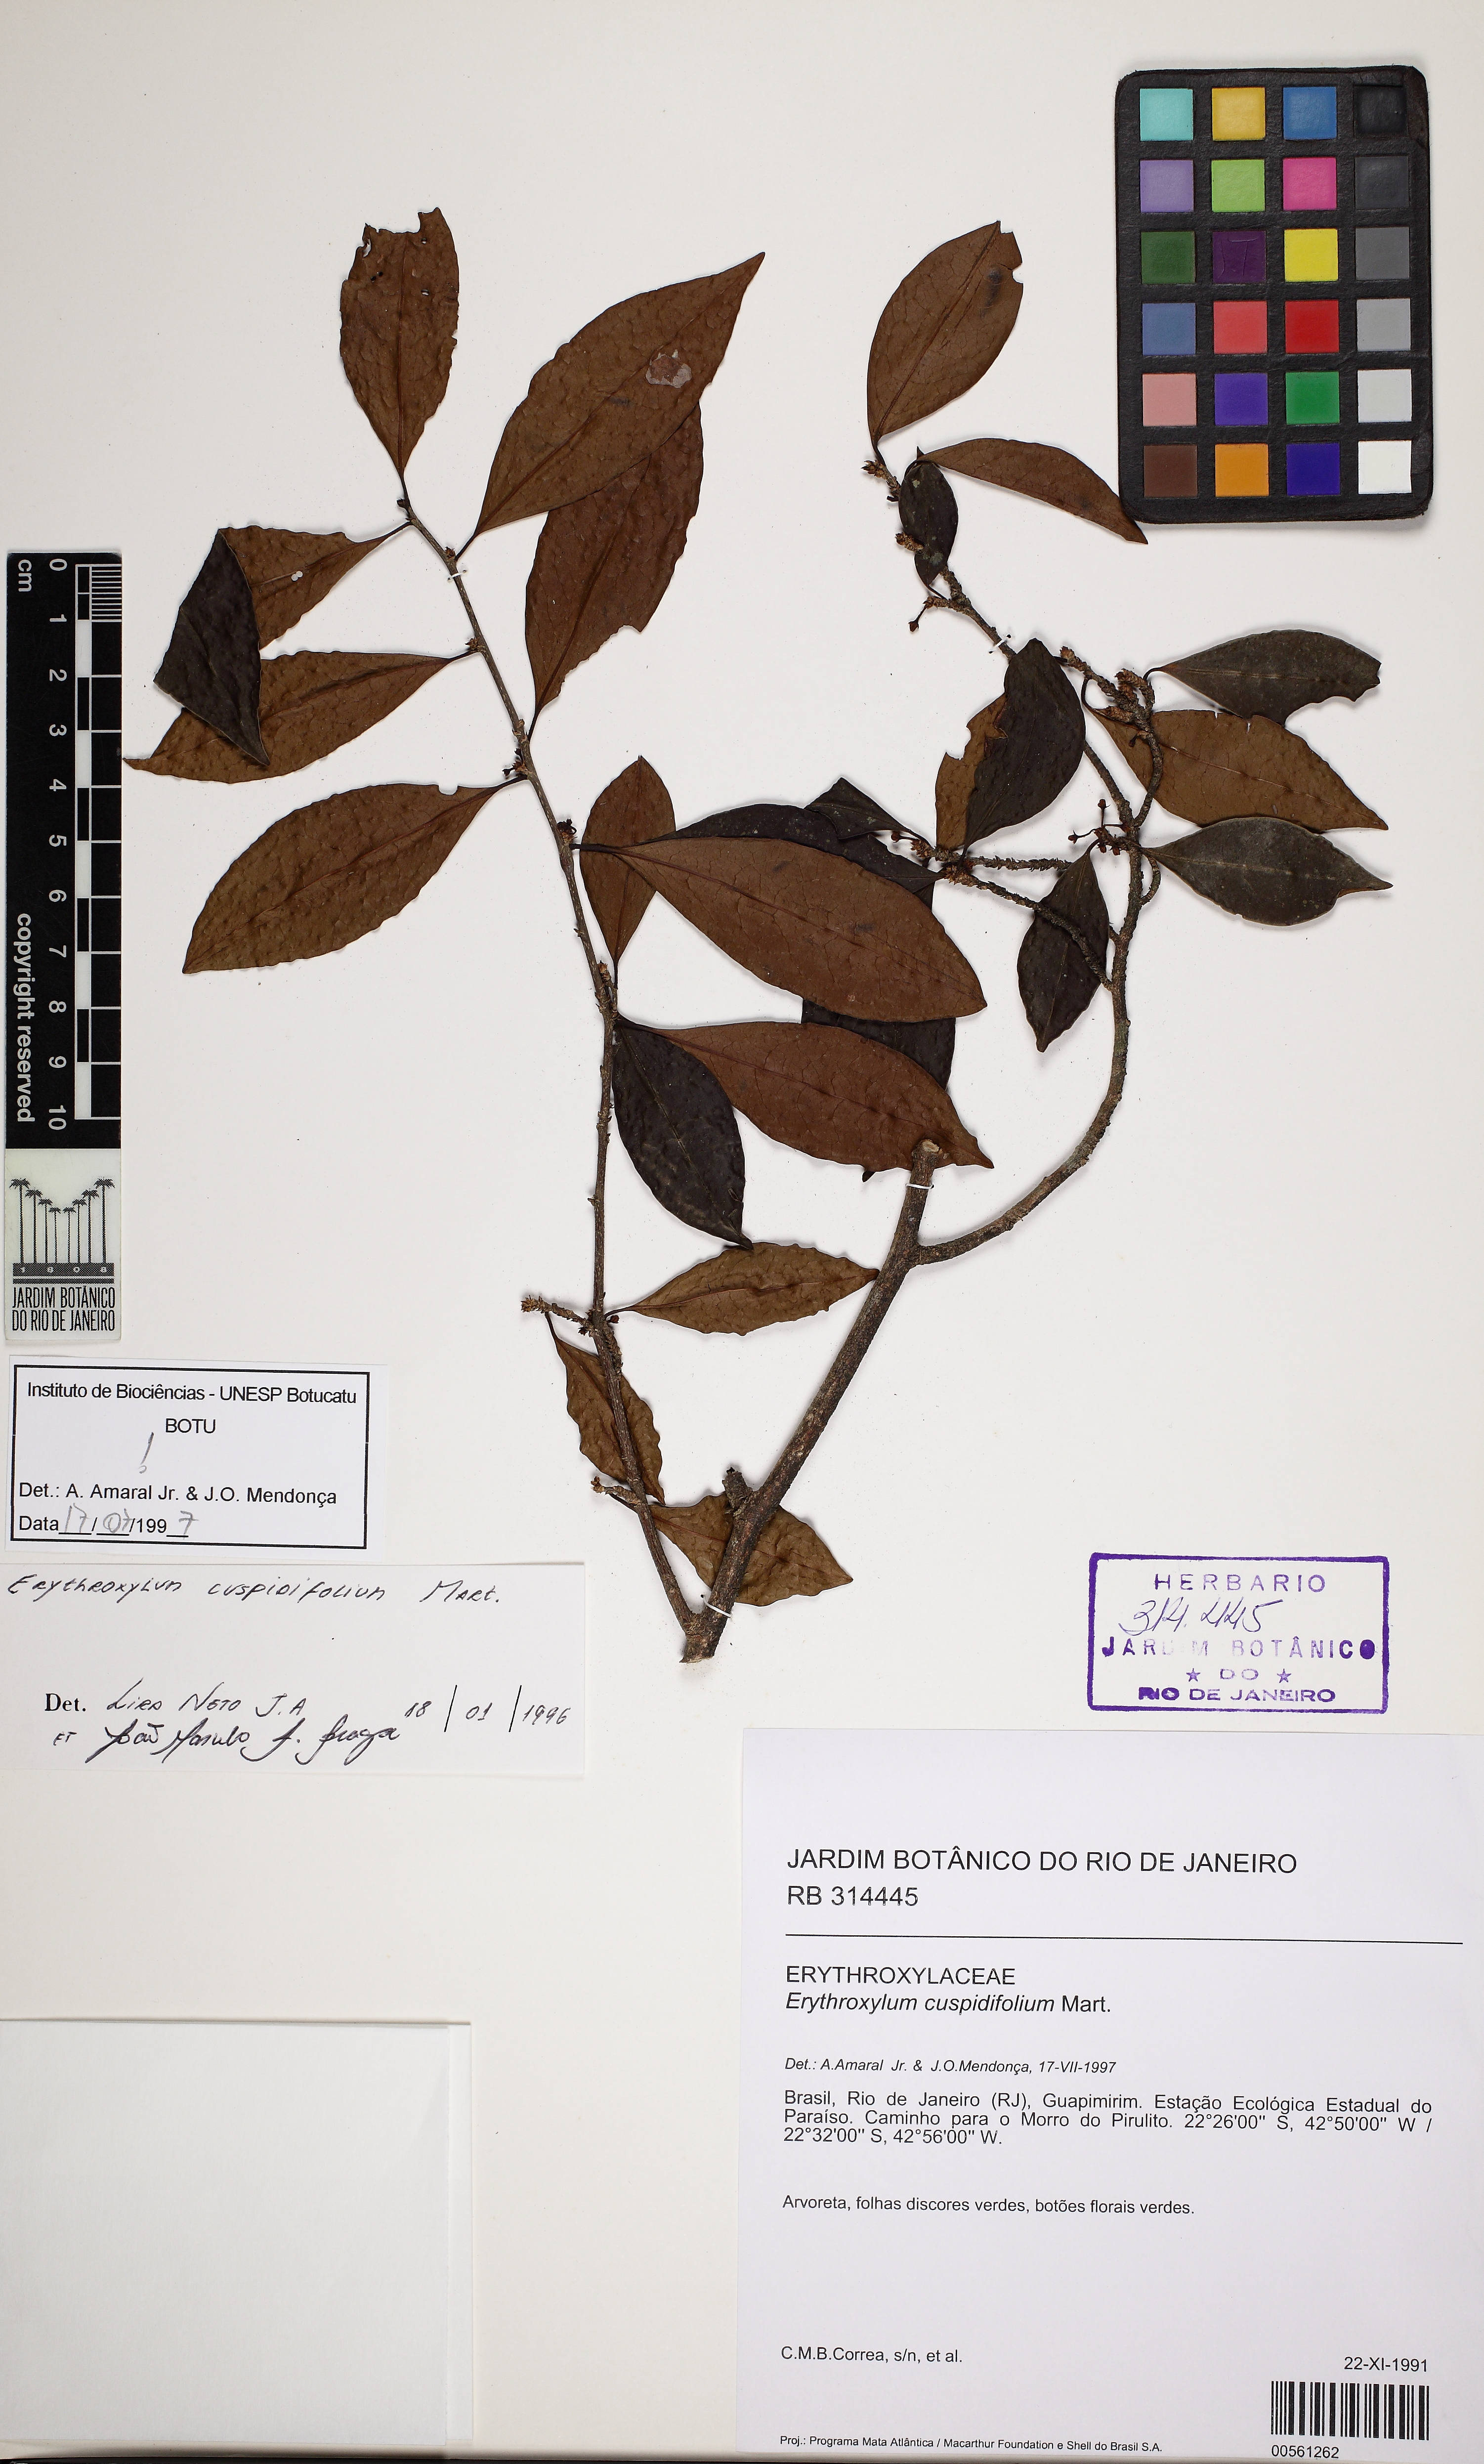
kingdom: Plantae
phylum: Tracheophyta
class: Magnoliopsida
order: Malpighiales
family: Erythroxylaceae
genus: Erythroxylum
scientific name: Erythroxylum cuspidifolium
